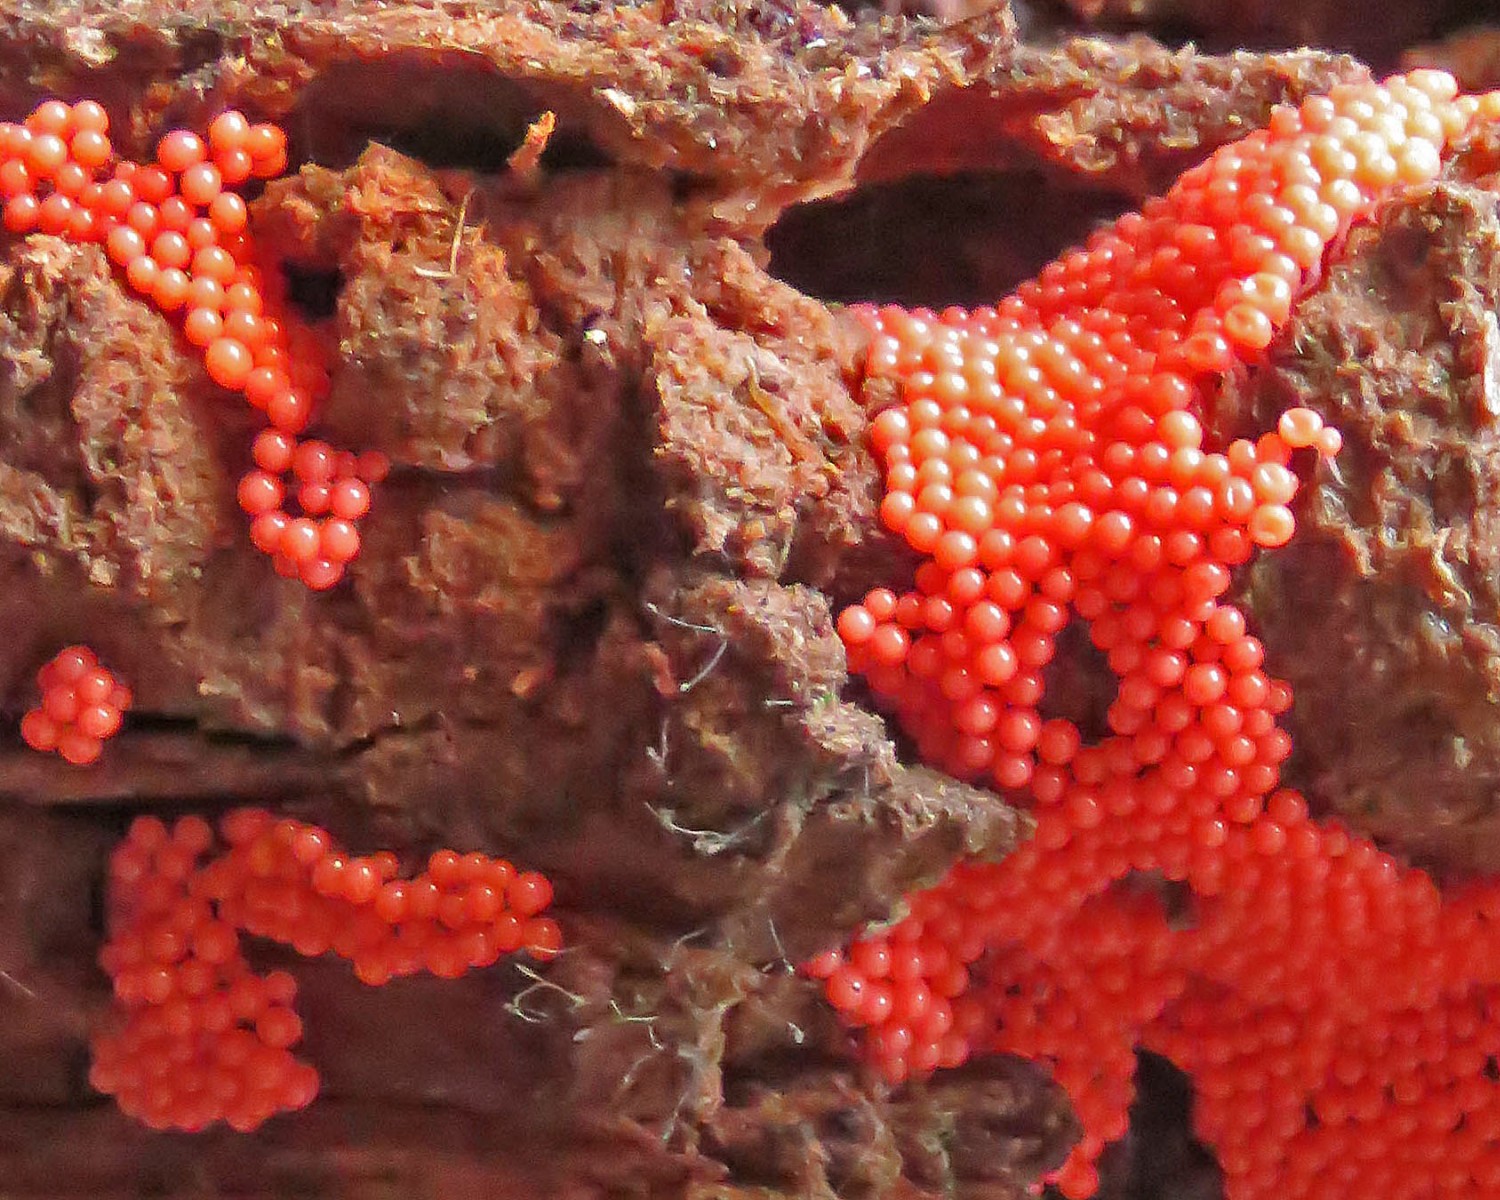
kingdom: Protozoa
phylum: Mycetozoa
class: Myxomycetes
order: Trichiales
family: Arcyriaceae
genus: Arcyria
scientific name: Arcyria ferruginea
